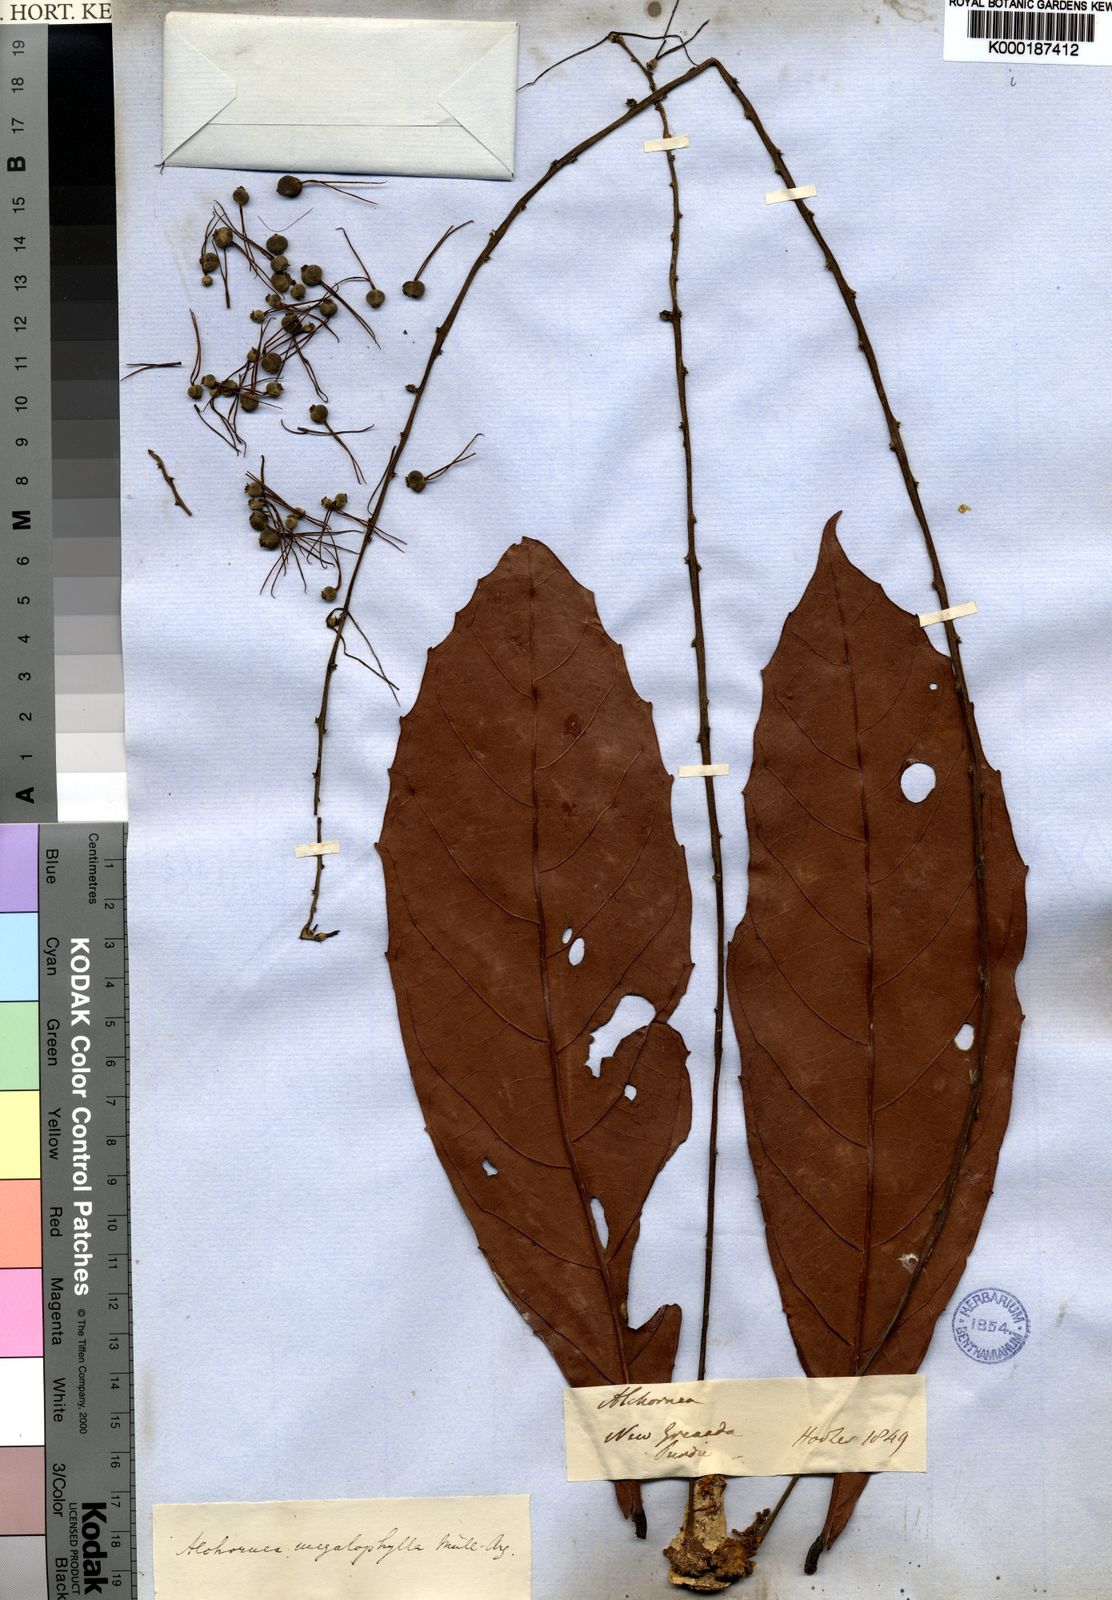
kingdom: Plantae
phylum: Tracheophyta
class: Magnoliopsida
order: Malpighiales
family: Euphorbiaceae
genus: Alchornea
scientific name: Alchornea
